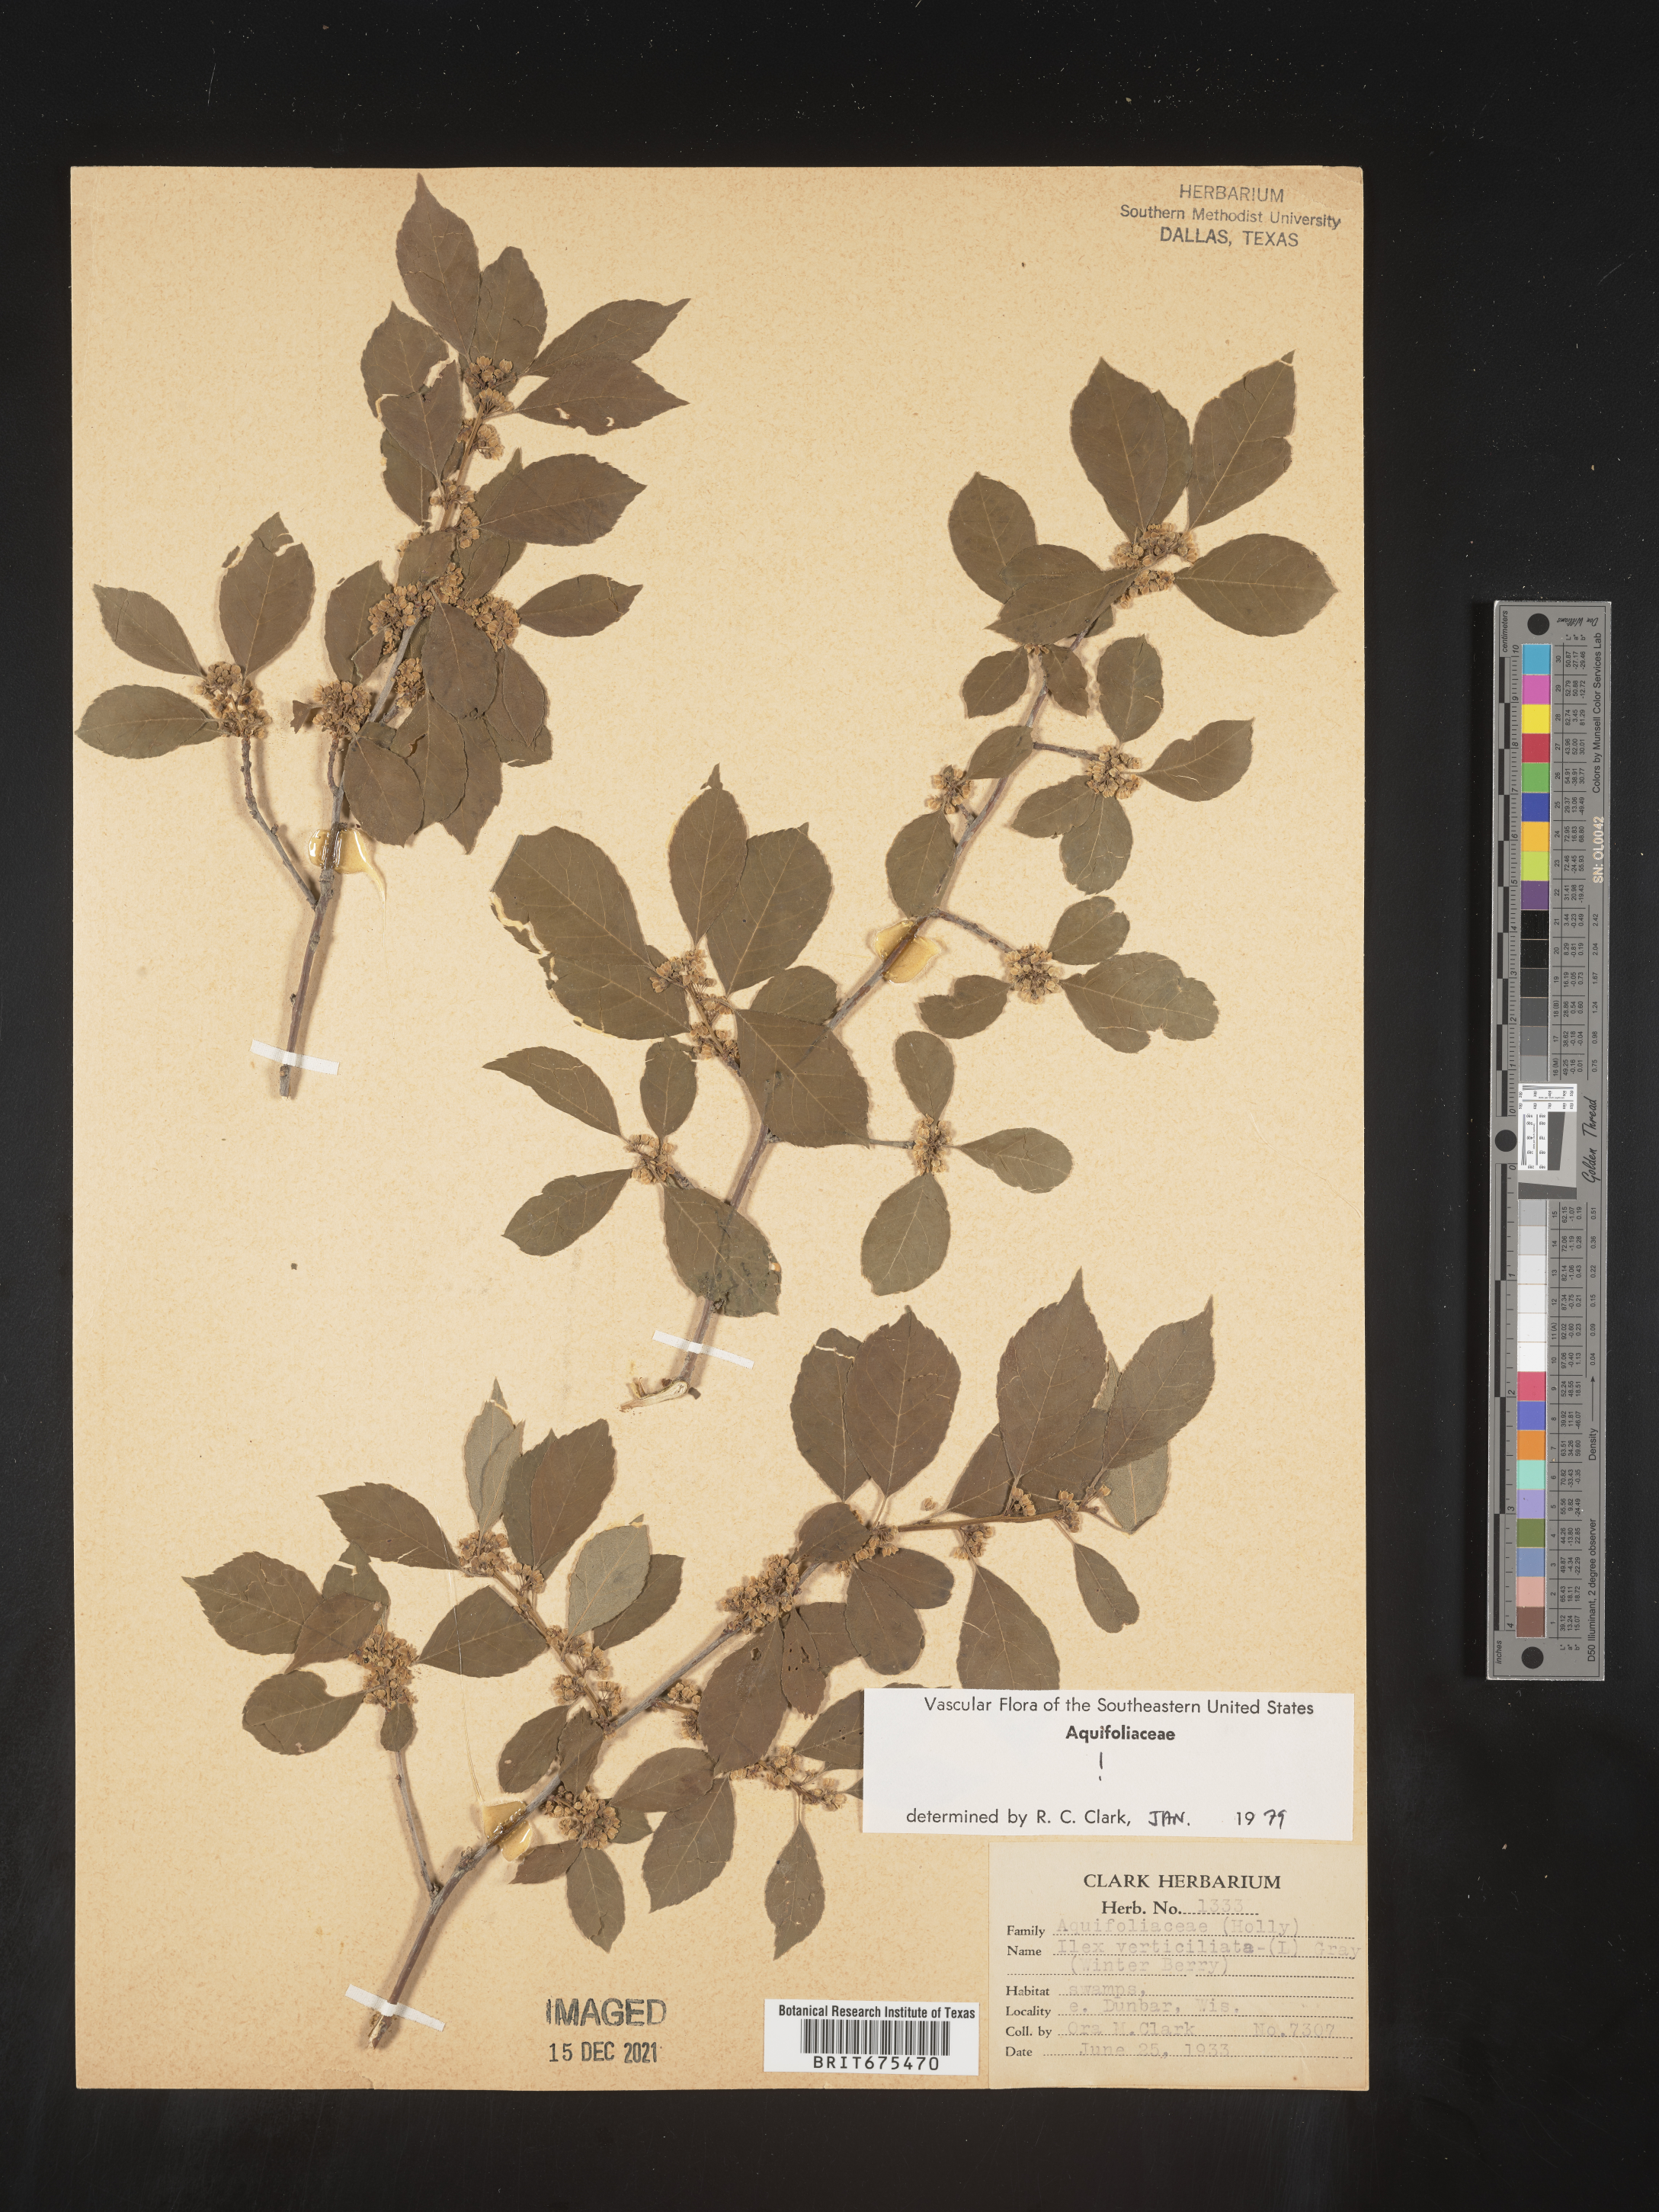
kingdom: Plantae
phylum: Tracheophyta
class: Magnoliopsida
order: Aquifoliales
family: Aquifoliaceae
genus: Ilex
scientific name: Ilex verticillata
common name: Virginia winterberry
